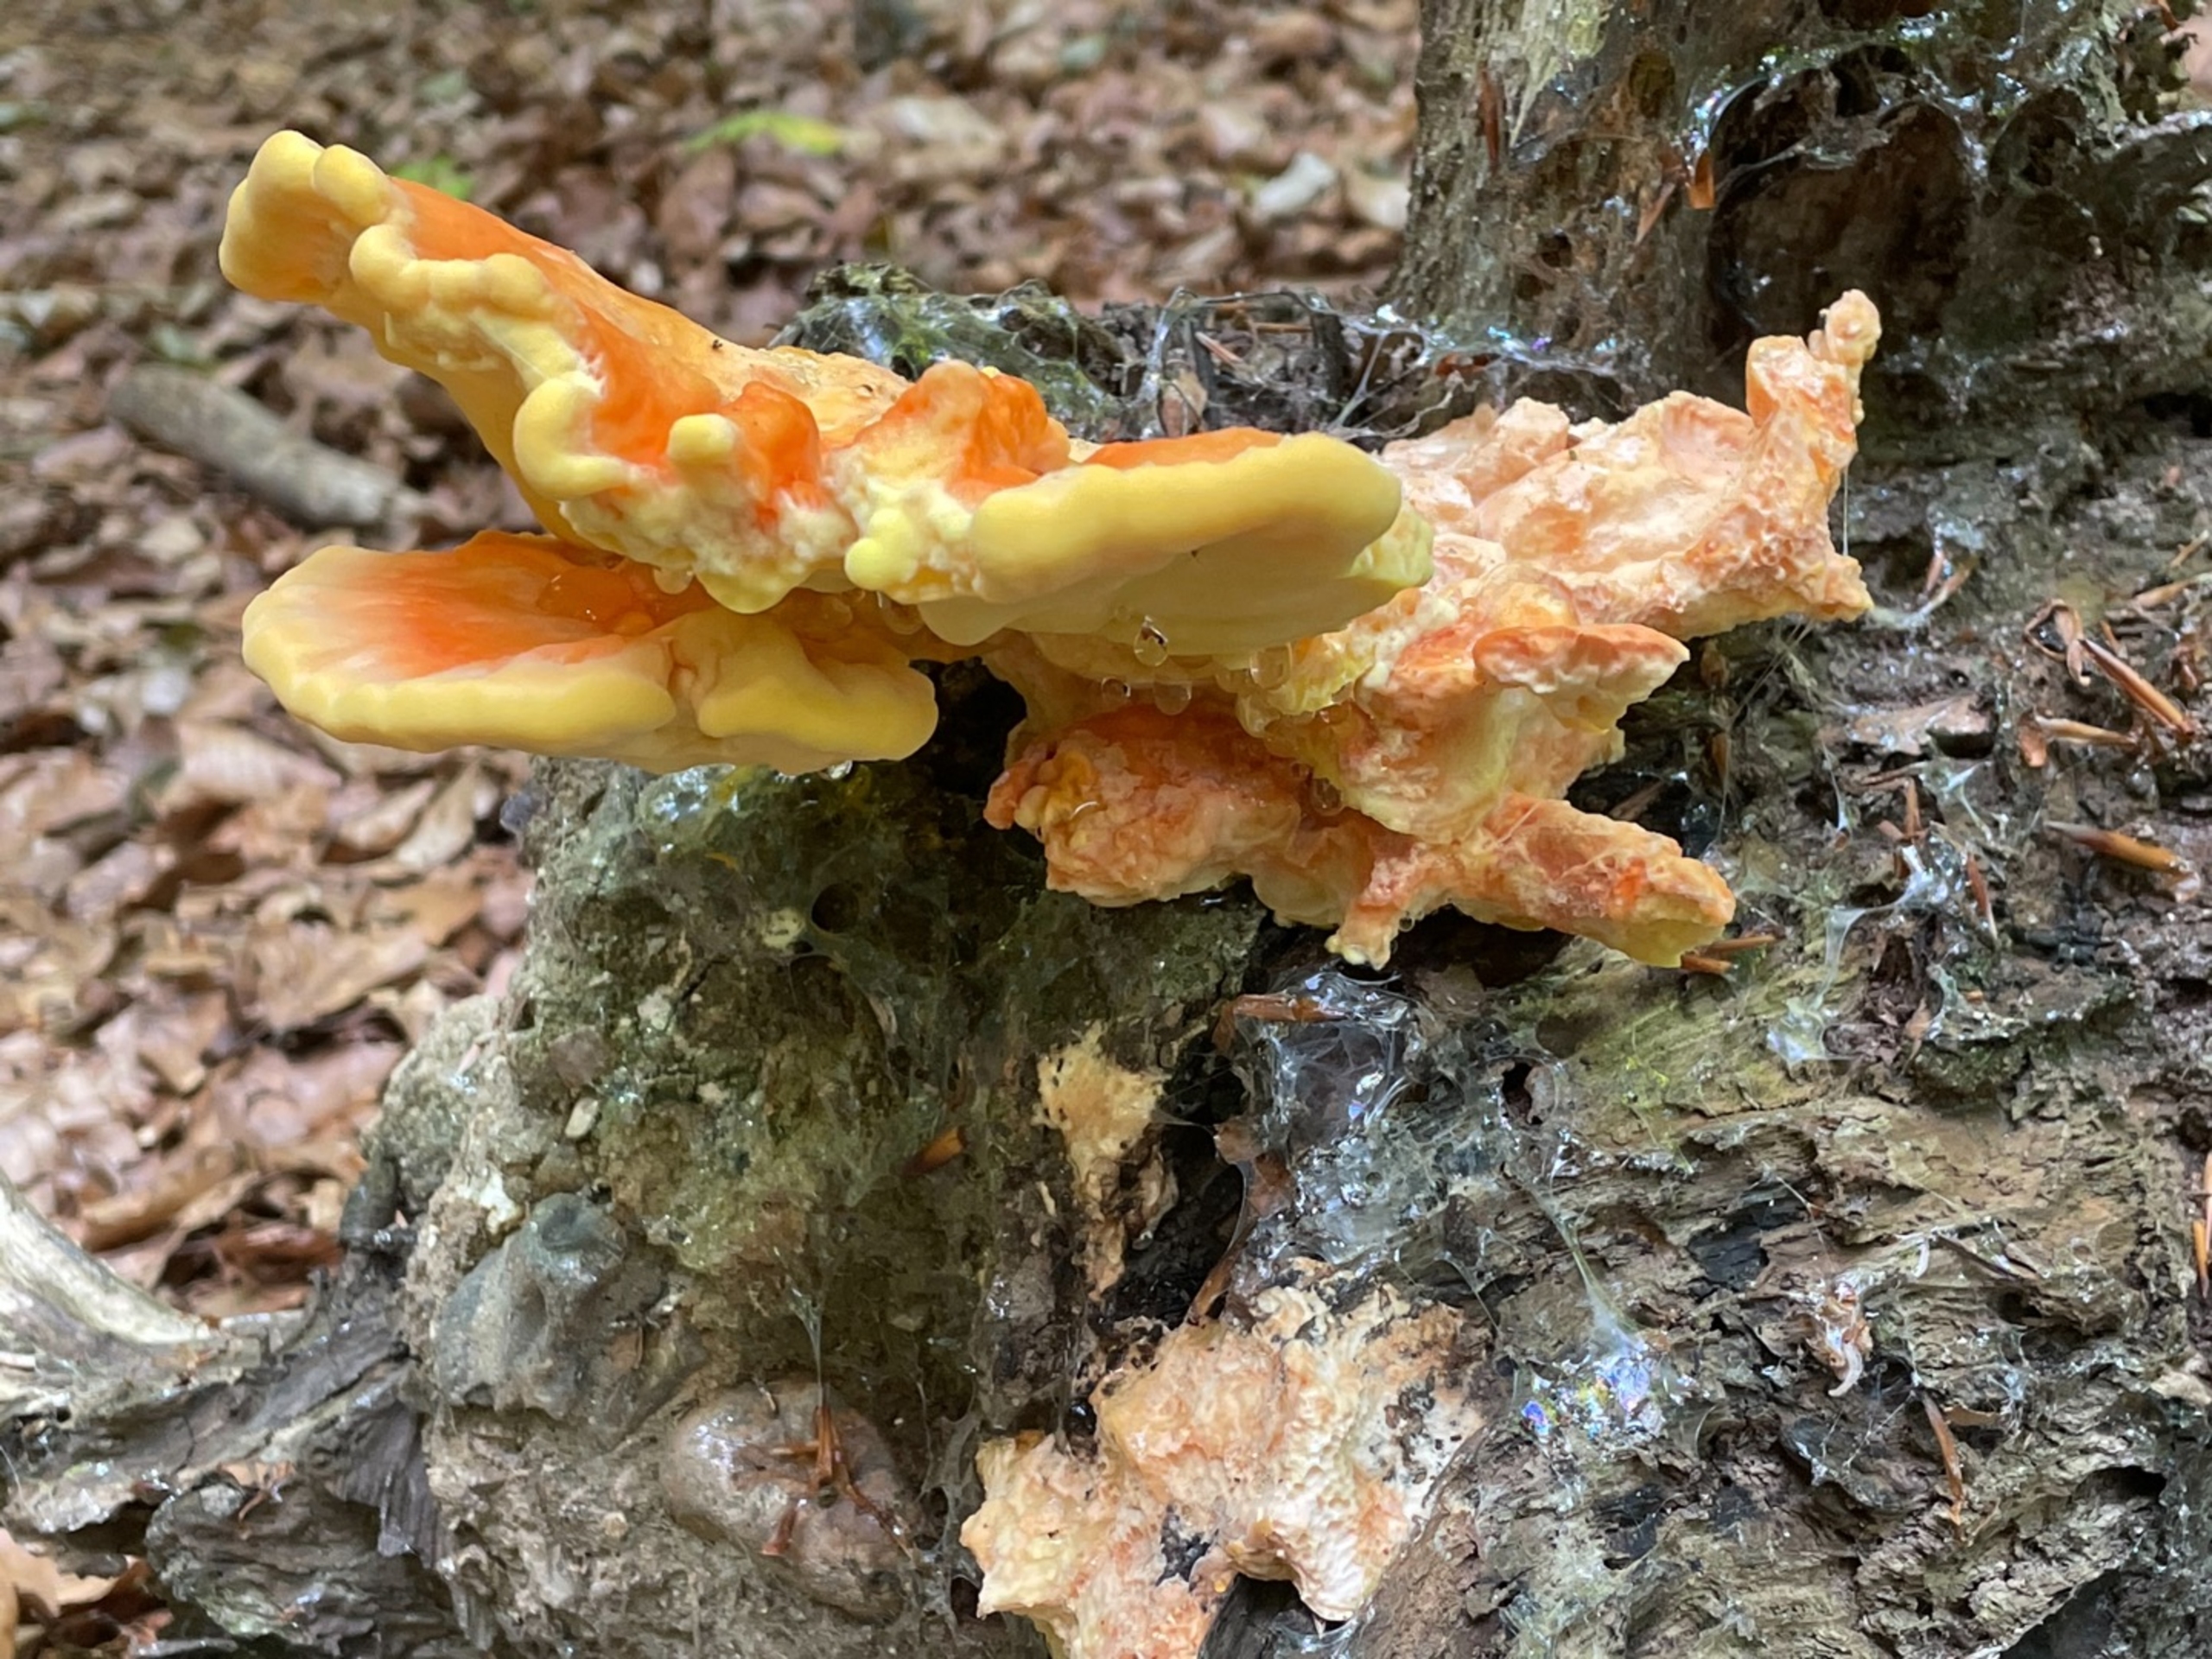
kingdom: Fungi
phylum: Basidiomycota
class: Agaricomycetes
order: Polyporales
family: Laetiporaceae
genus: Laetiporus
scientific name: Laetiporus sulphureus
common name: Svovlporesvamp
